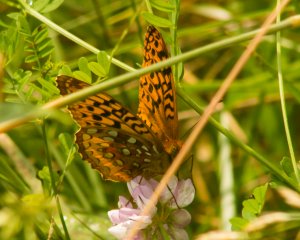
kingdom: Animalia
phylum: Arthropoda
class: Insecta
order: Lepidoptera
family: Nymphalidae
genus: Speyeria
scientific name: Speyeria cybele
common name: Great Spangled Fritillary
